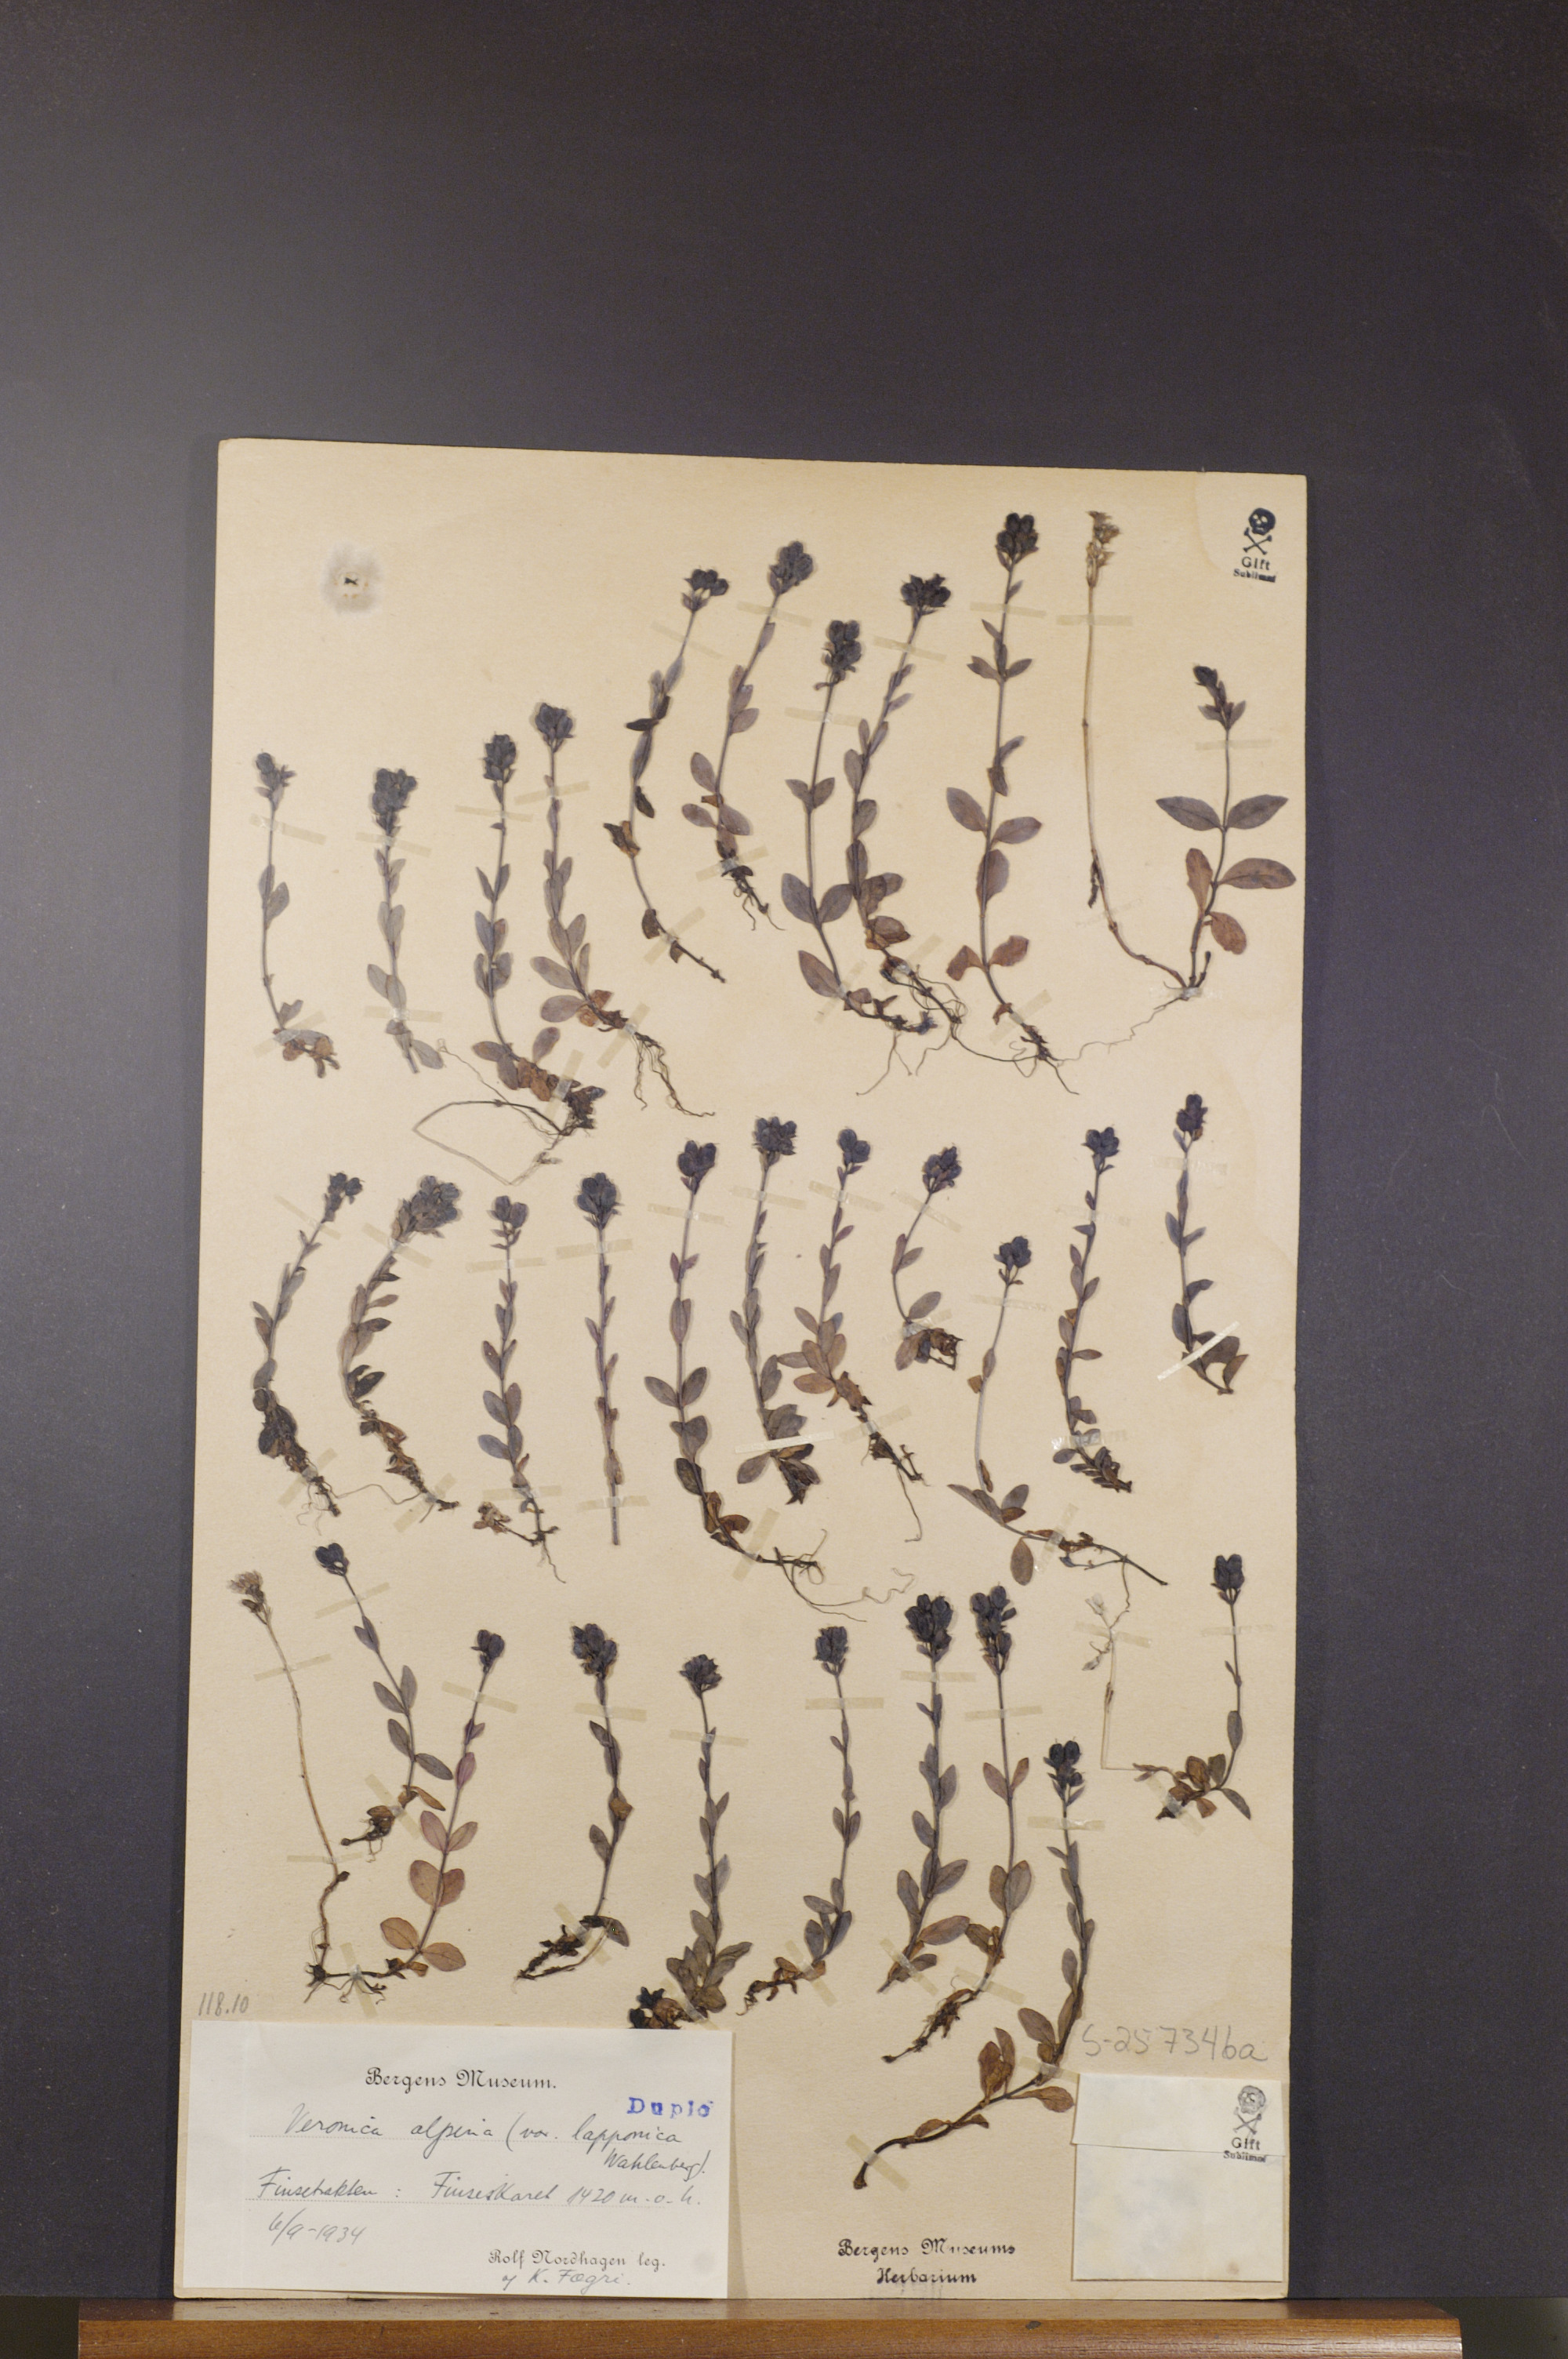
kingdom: Plantae
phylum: Tracheophyta
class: Magnoliopsida
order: Lamiales
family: Plantaginaceae
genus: Veronica
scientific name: Veronica alpina
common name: Alpine speedwell
